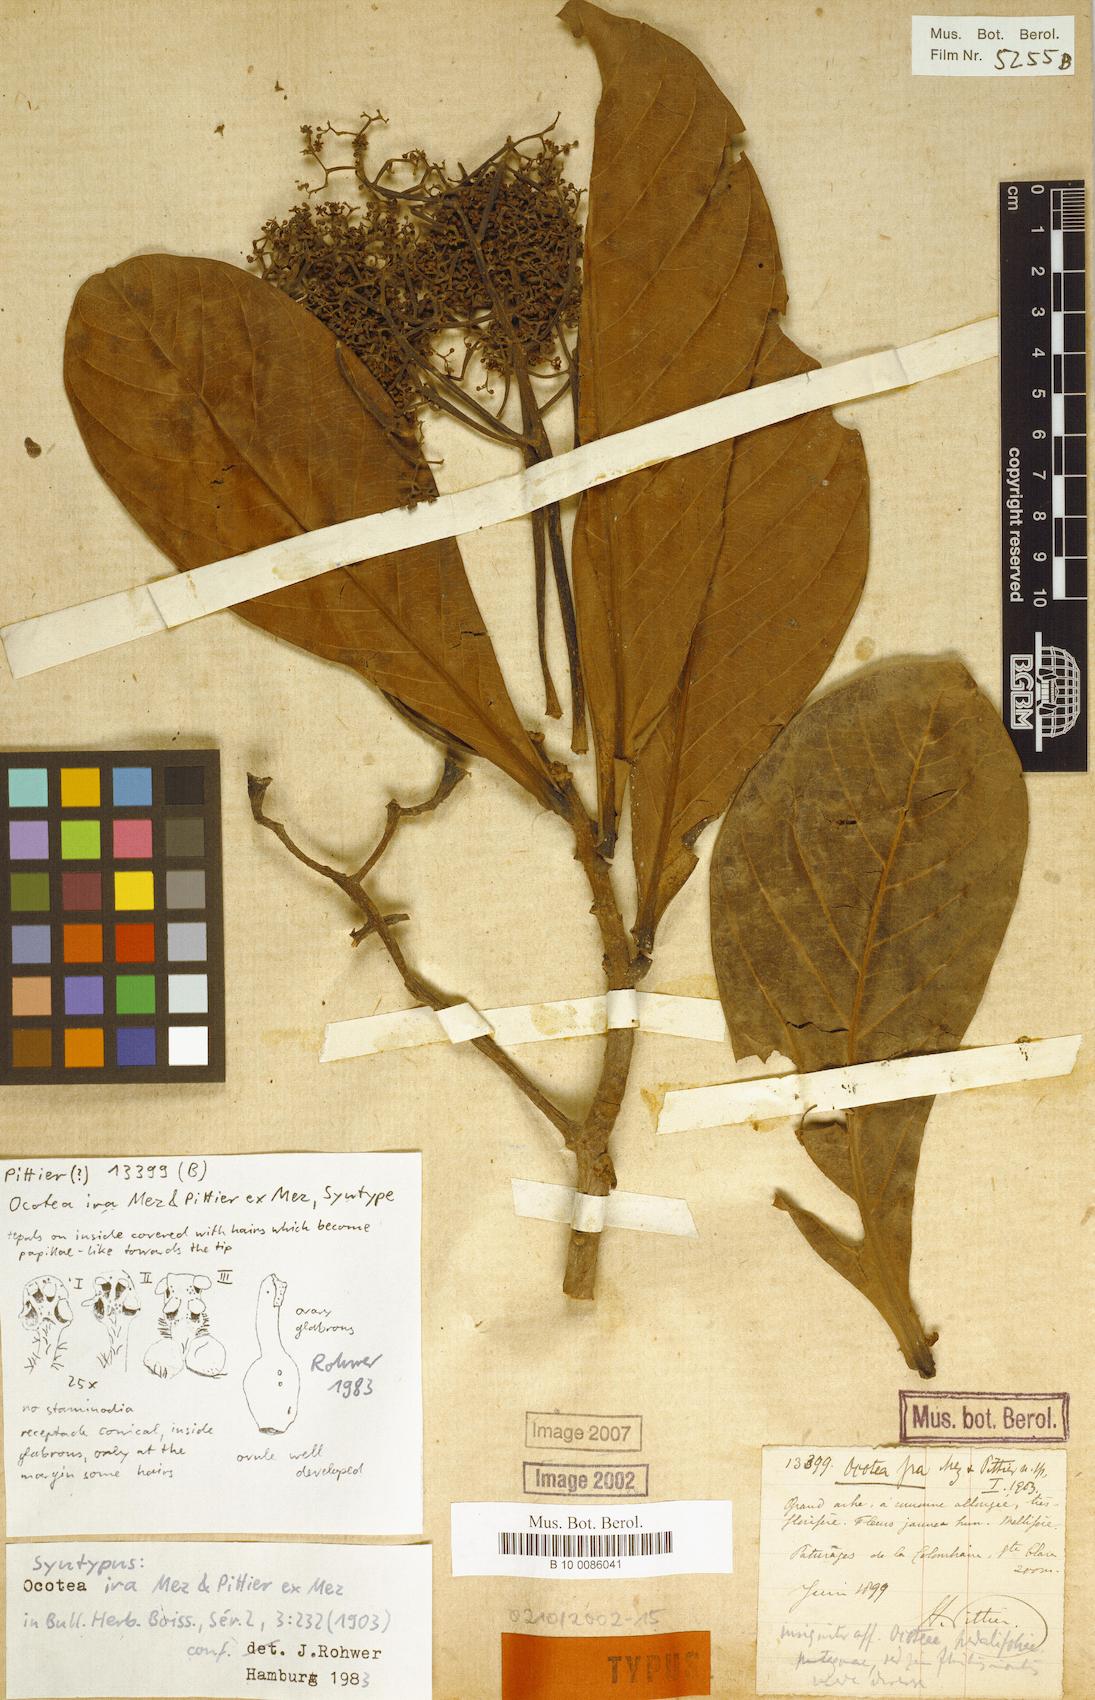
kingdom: Plantae
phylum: Tracheophyta
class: Magnoliopsida
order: Laurales
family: Lauraceae
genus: Ocotea
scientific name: Ocotea insularis
